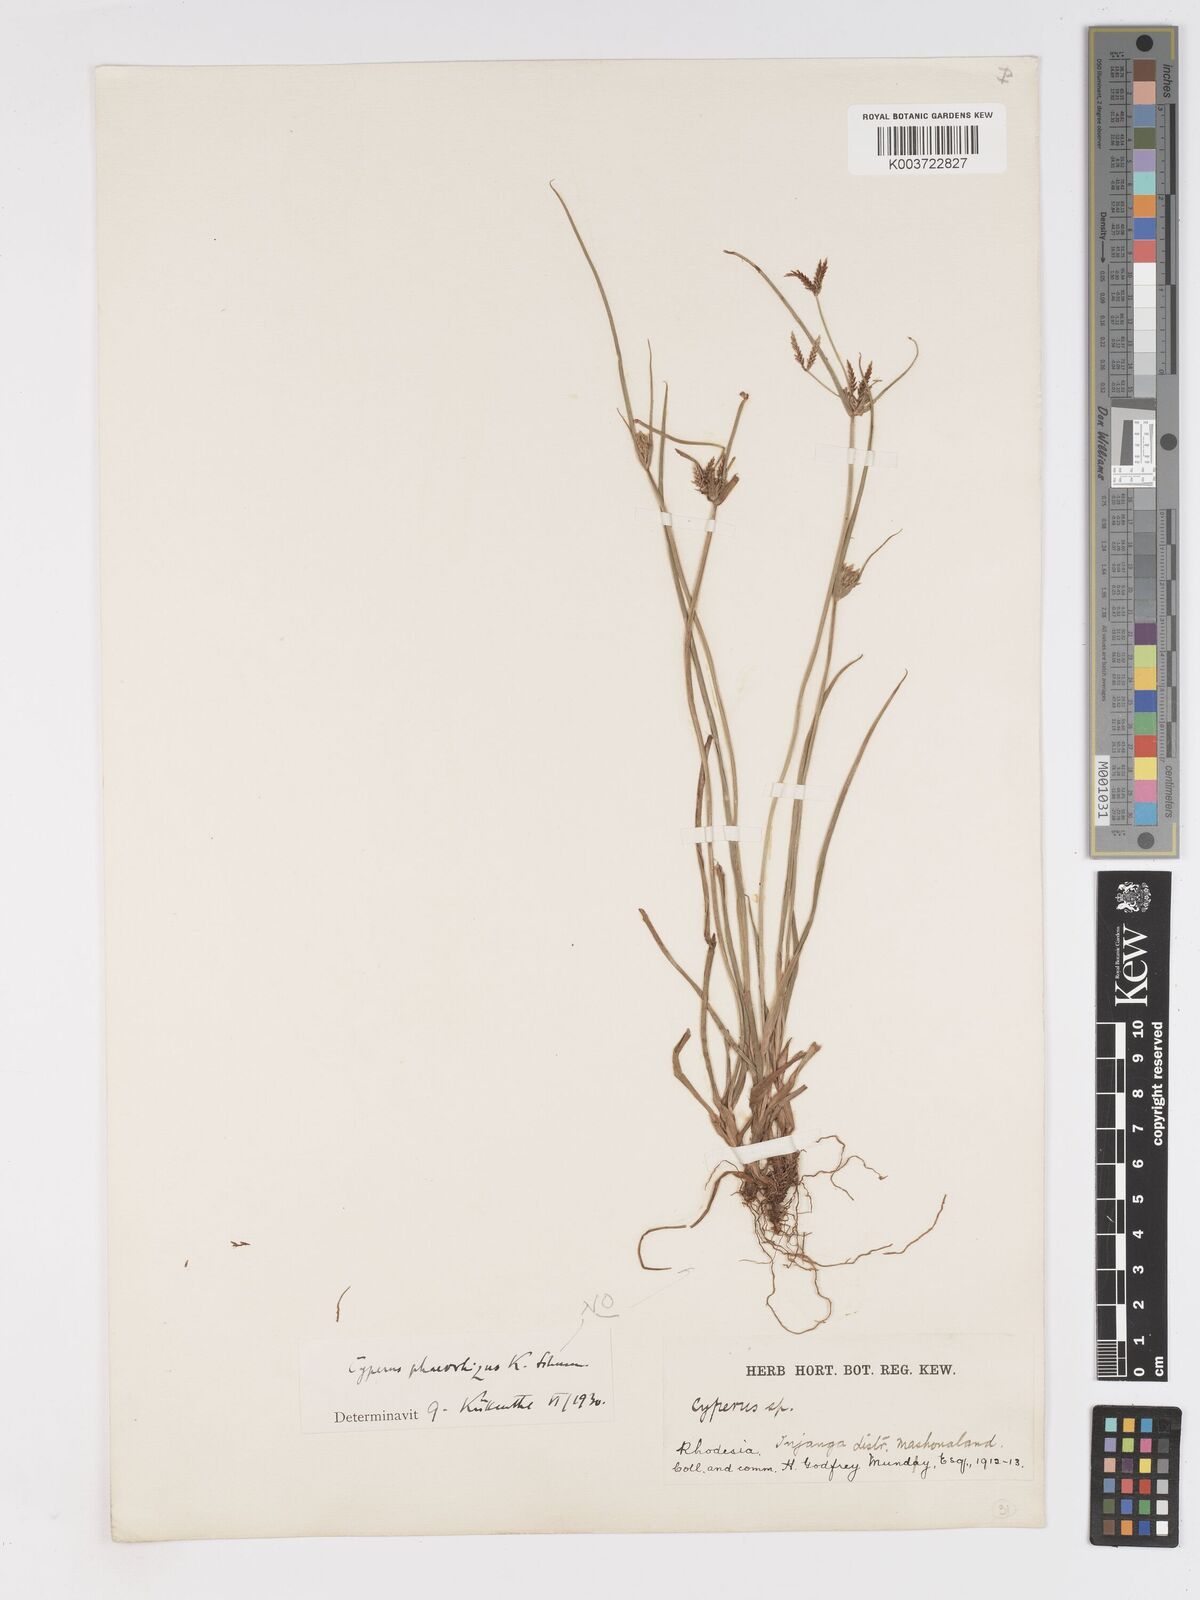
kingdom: Plantae
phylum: Tracheophyta
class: Liliopsida
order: Poales
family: Cyperaceae
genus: Cyperus
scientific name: Cyperus glaucophyllus
